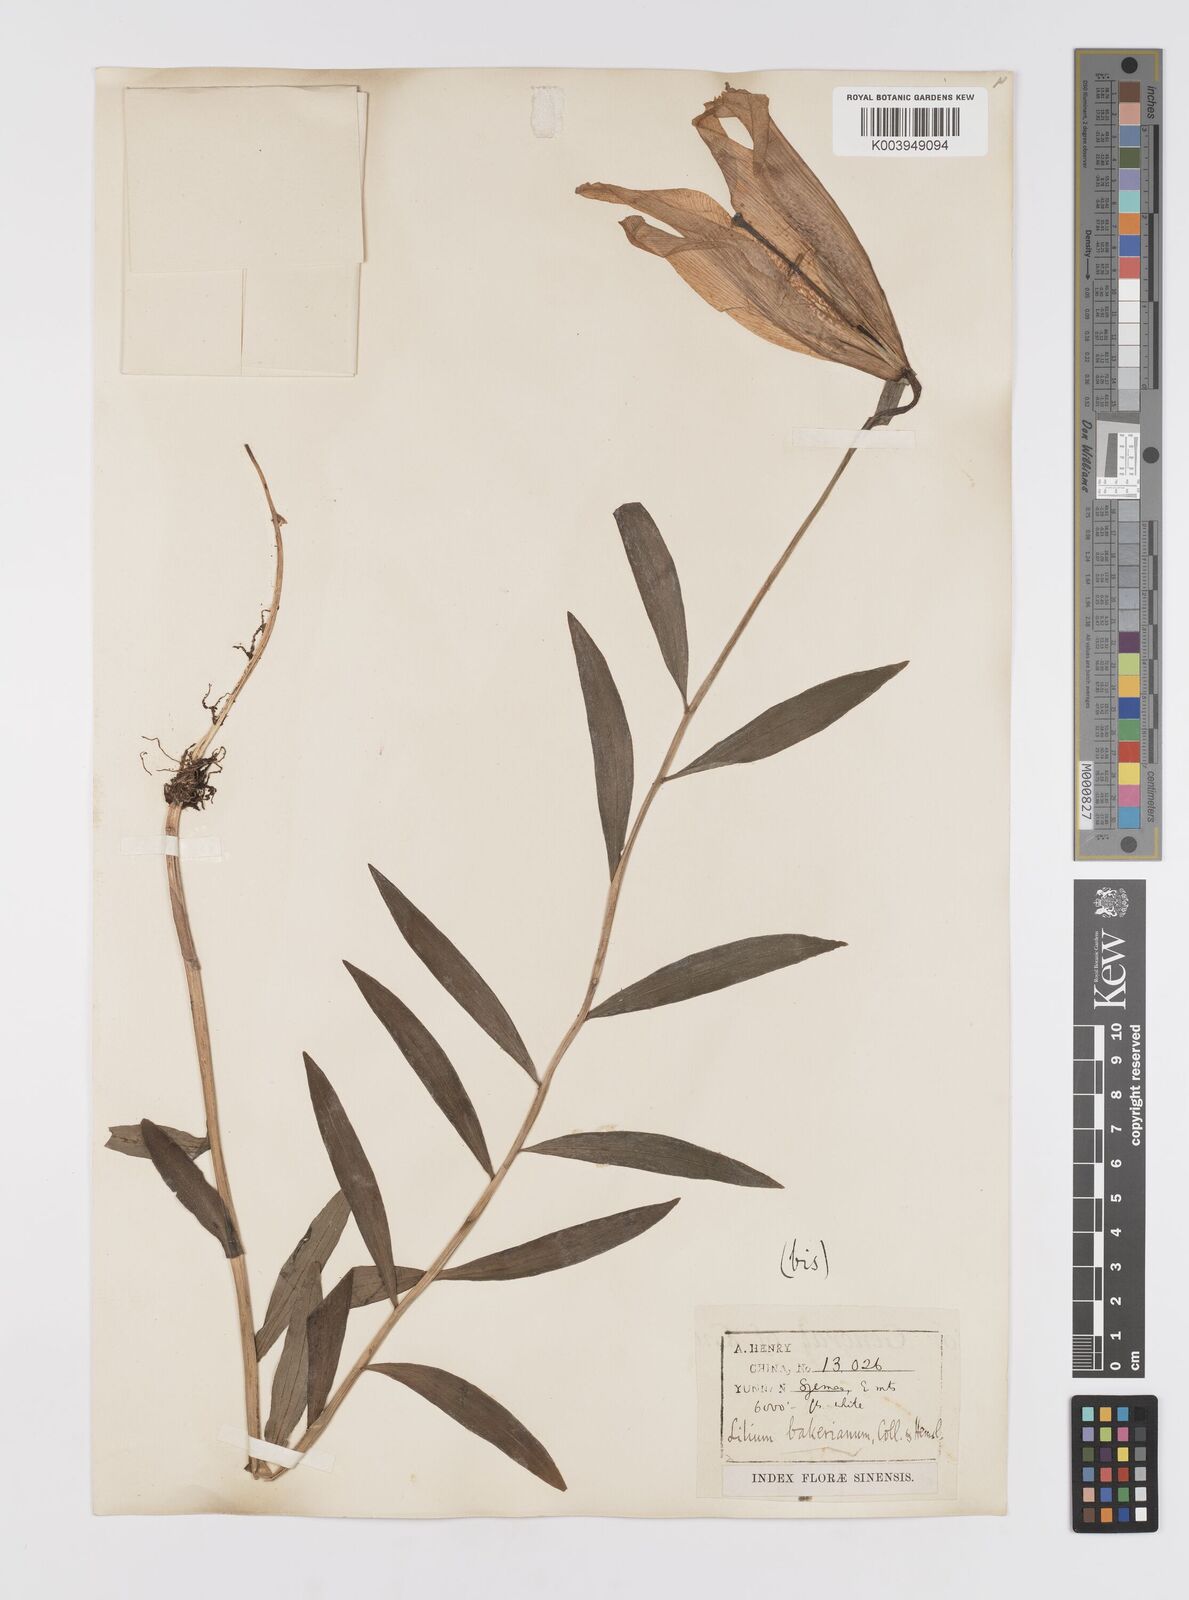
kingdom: Plantae
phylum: Tracheophyta
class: Liliopsida
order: Liliales
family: Liliaceae
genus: Lilium
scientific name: Lilium bakerianum
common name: Baker's lily
